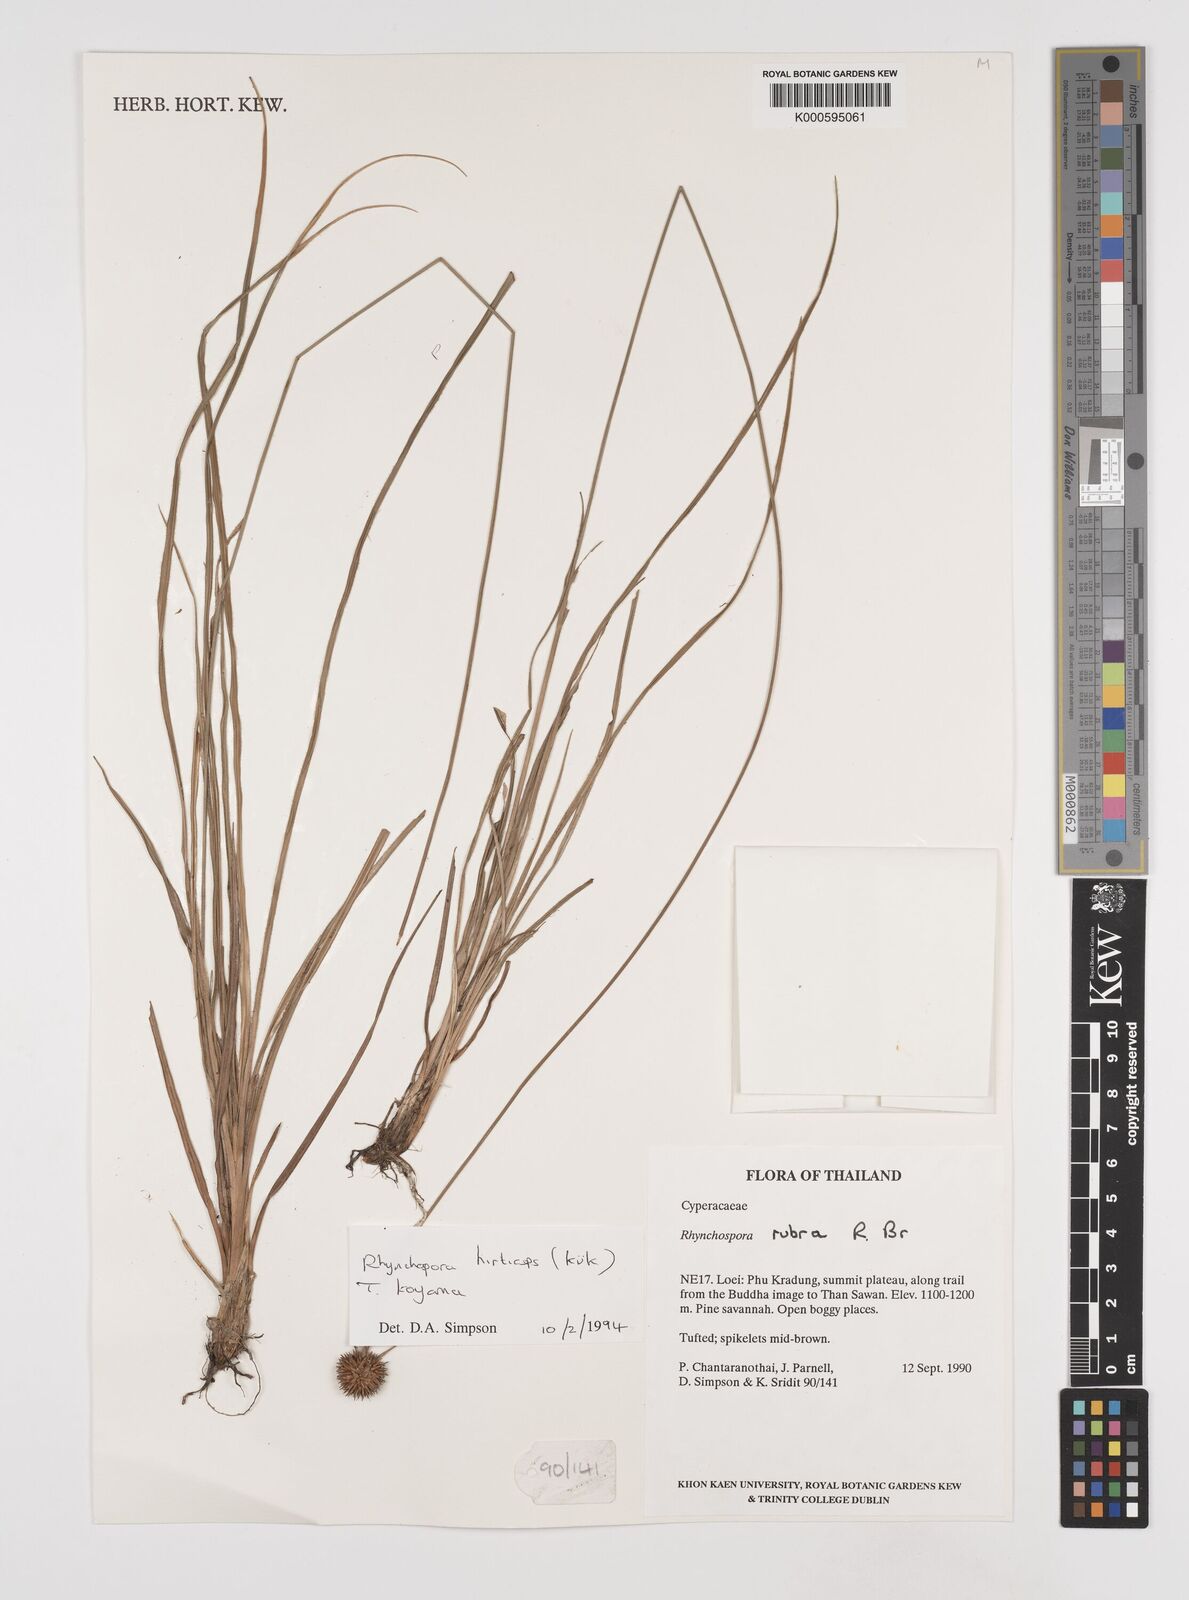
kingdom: Plantae
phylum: Tracheophyta
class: Liliopsida
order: Poales
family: Cyperaceae
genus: Rhynchospora
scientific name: Rhynchospora
